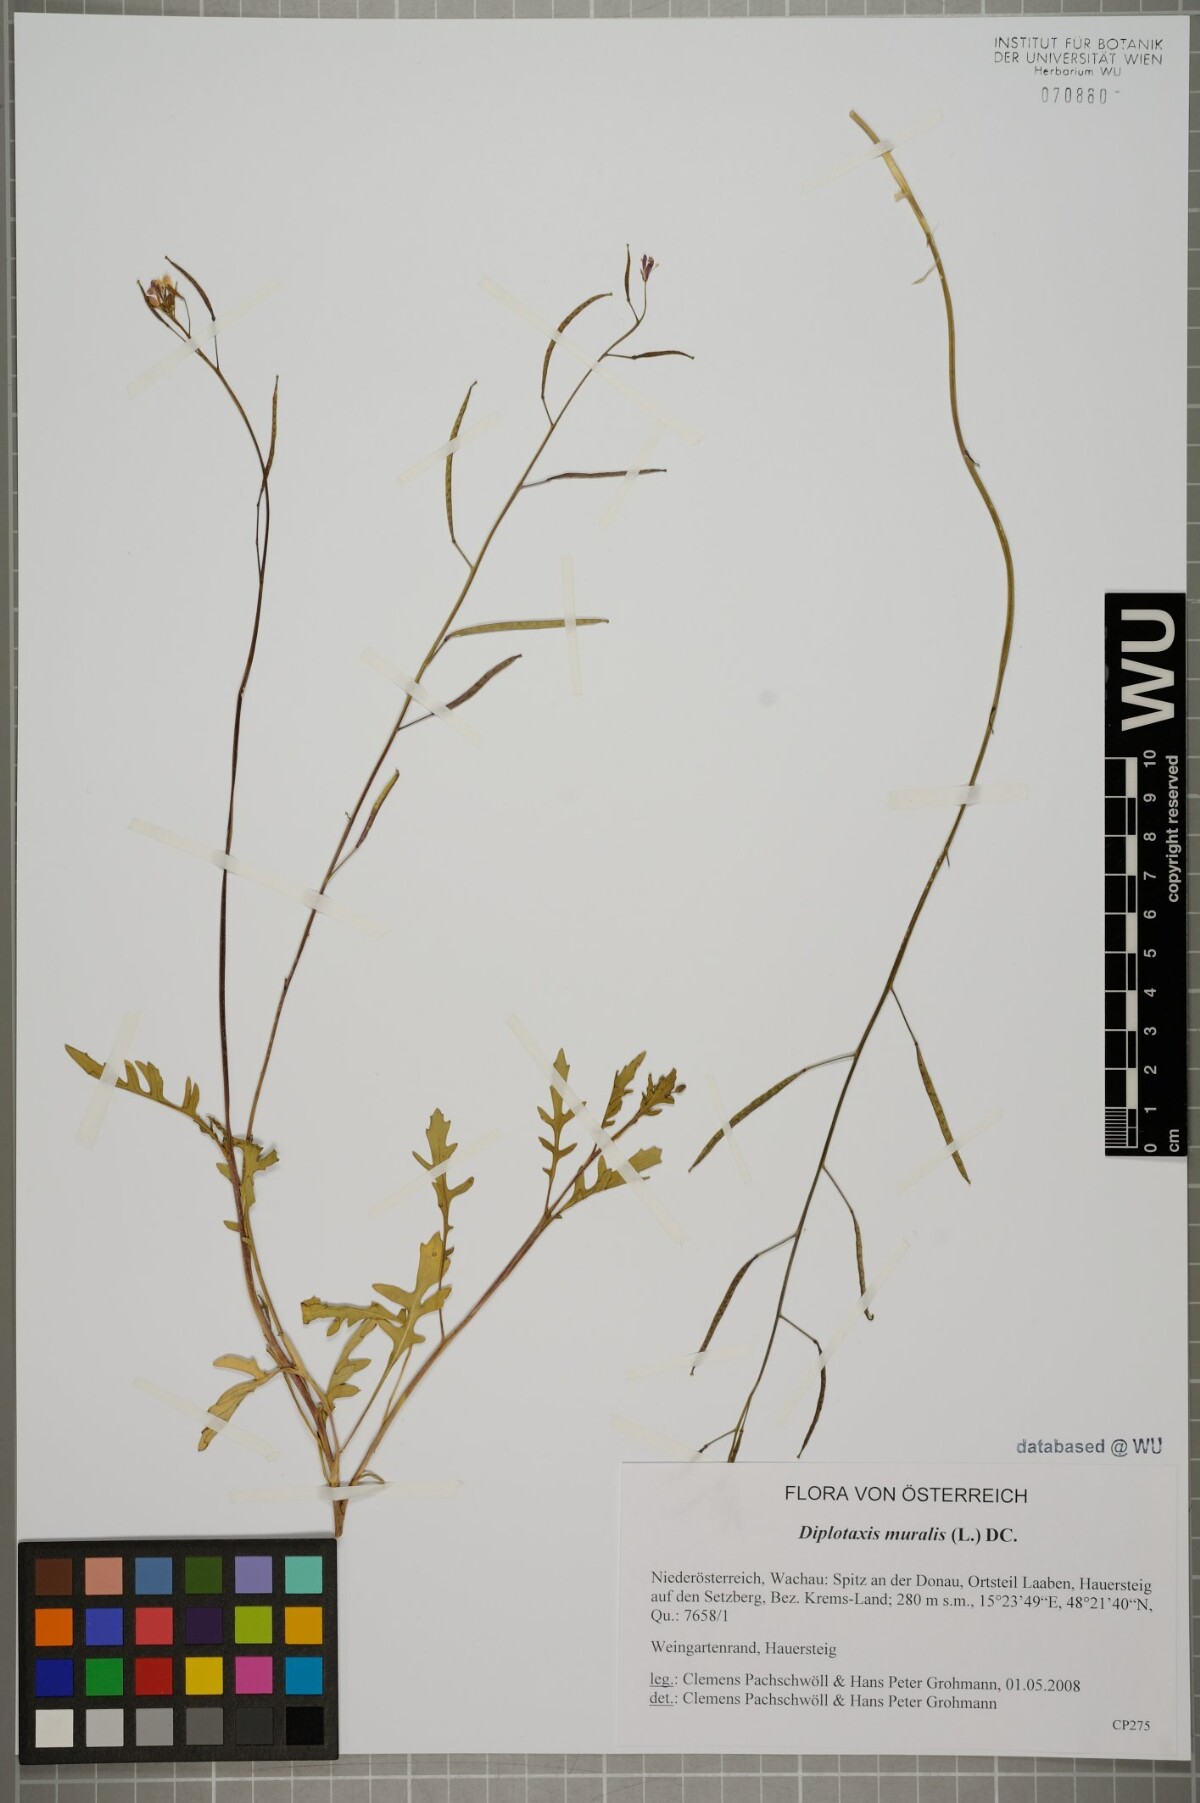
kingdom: Plantae
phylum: Tracheophyta
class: Magnoliopsida
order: Brassicales
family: Brassicaceae
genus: Diplotaxis
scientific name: Diplotaxis muralis
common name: Annual wall-rocket
